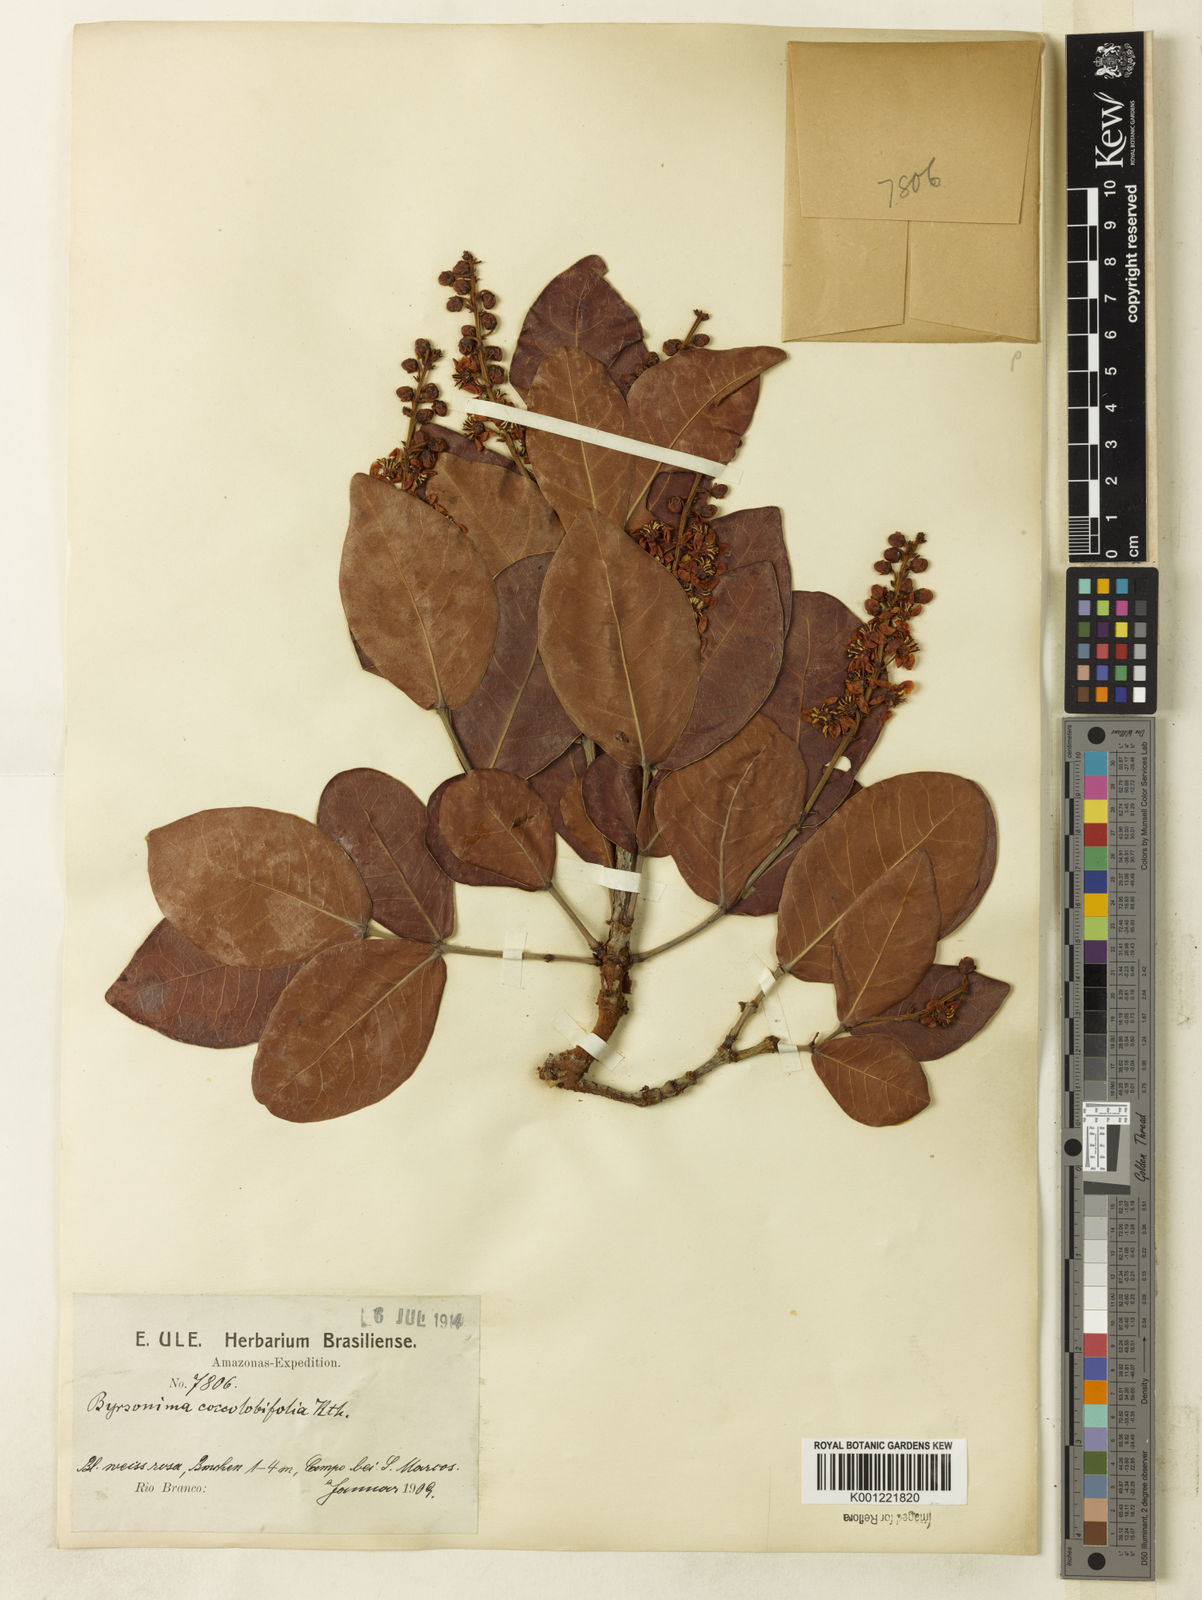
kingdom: Plantae
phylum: Tracheophyta
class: Magnoliopsida
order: Malpighiales
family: Malpighiaceae
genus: Byrsonima
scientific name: Byrsonima coccolobifolia
